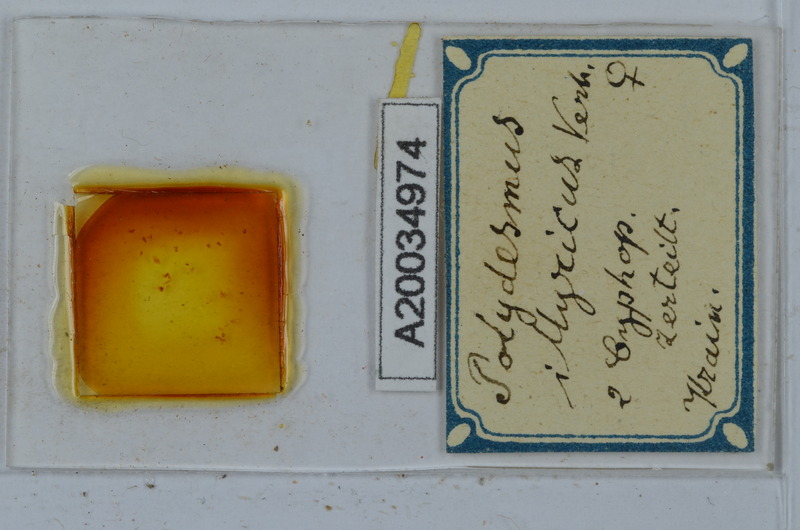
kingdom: Animalia
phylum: Arthropoda
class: Diplopoda
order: Polydesmida
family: Polydesmidae
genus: Polydesmus
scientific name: Polydesmus complanatus
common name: Flat-backed millipede
